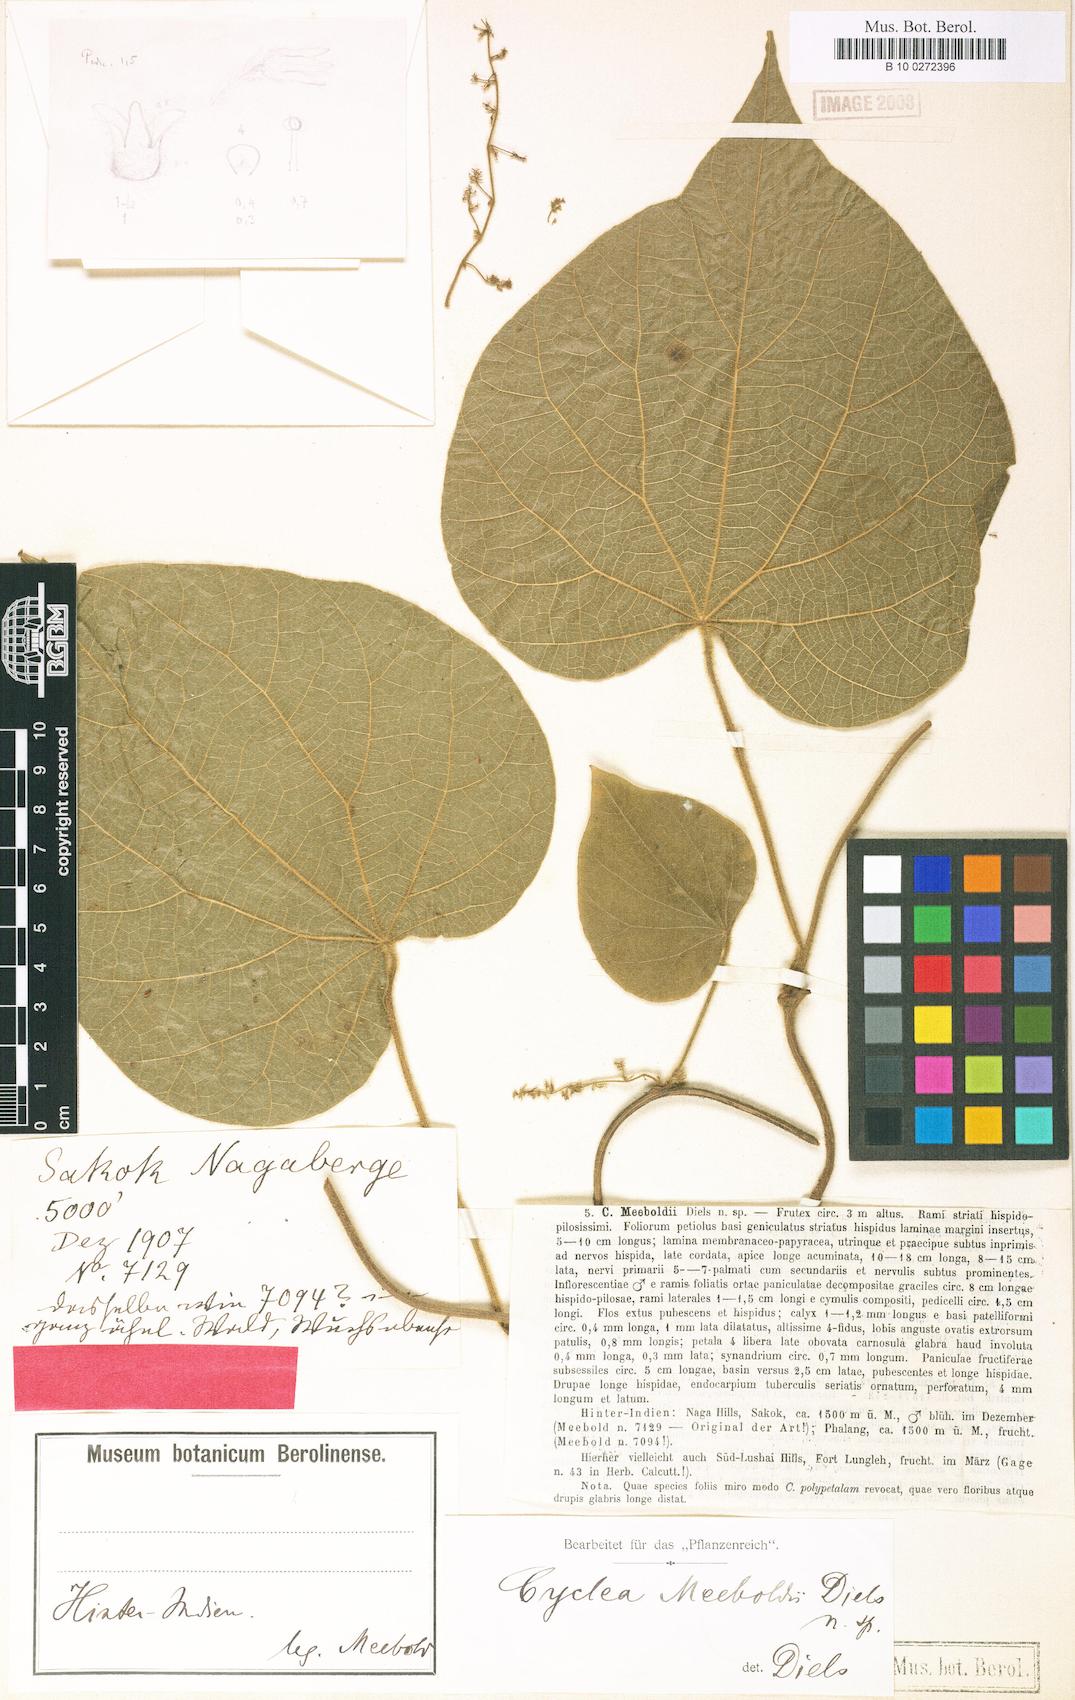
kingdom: Plantae
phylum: Tracheophyta
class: Magnoliopsida
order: Ranunculales
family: Menispermaceae
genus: Cyclea
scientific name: Cyclea meeboldii
